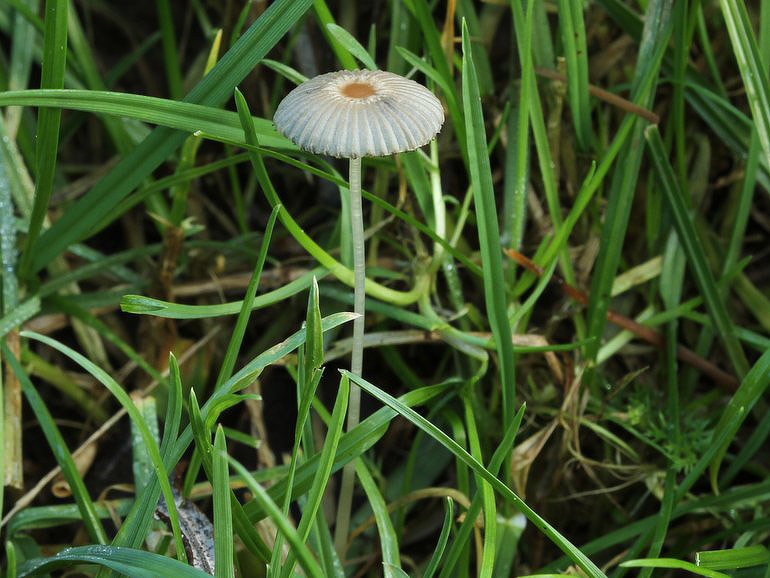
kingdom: Fungi
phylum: Basidiomycota
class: Agaricomycetes
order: Agaricales
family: Psathyrellaceae
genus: Parasola
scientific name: Parasola plicatilis
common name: plæne-hjulhat
